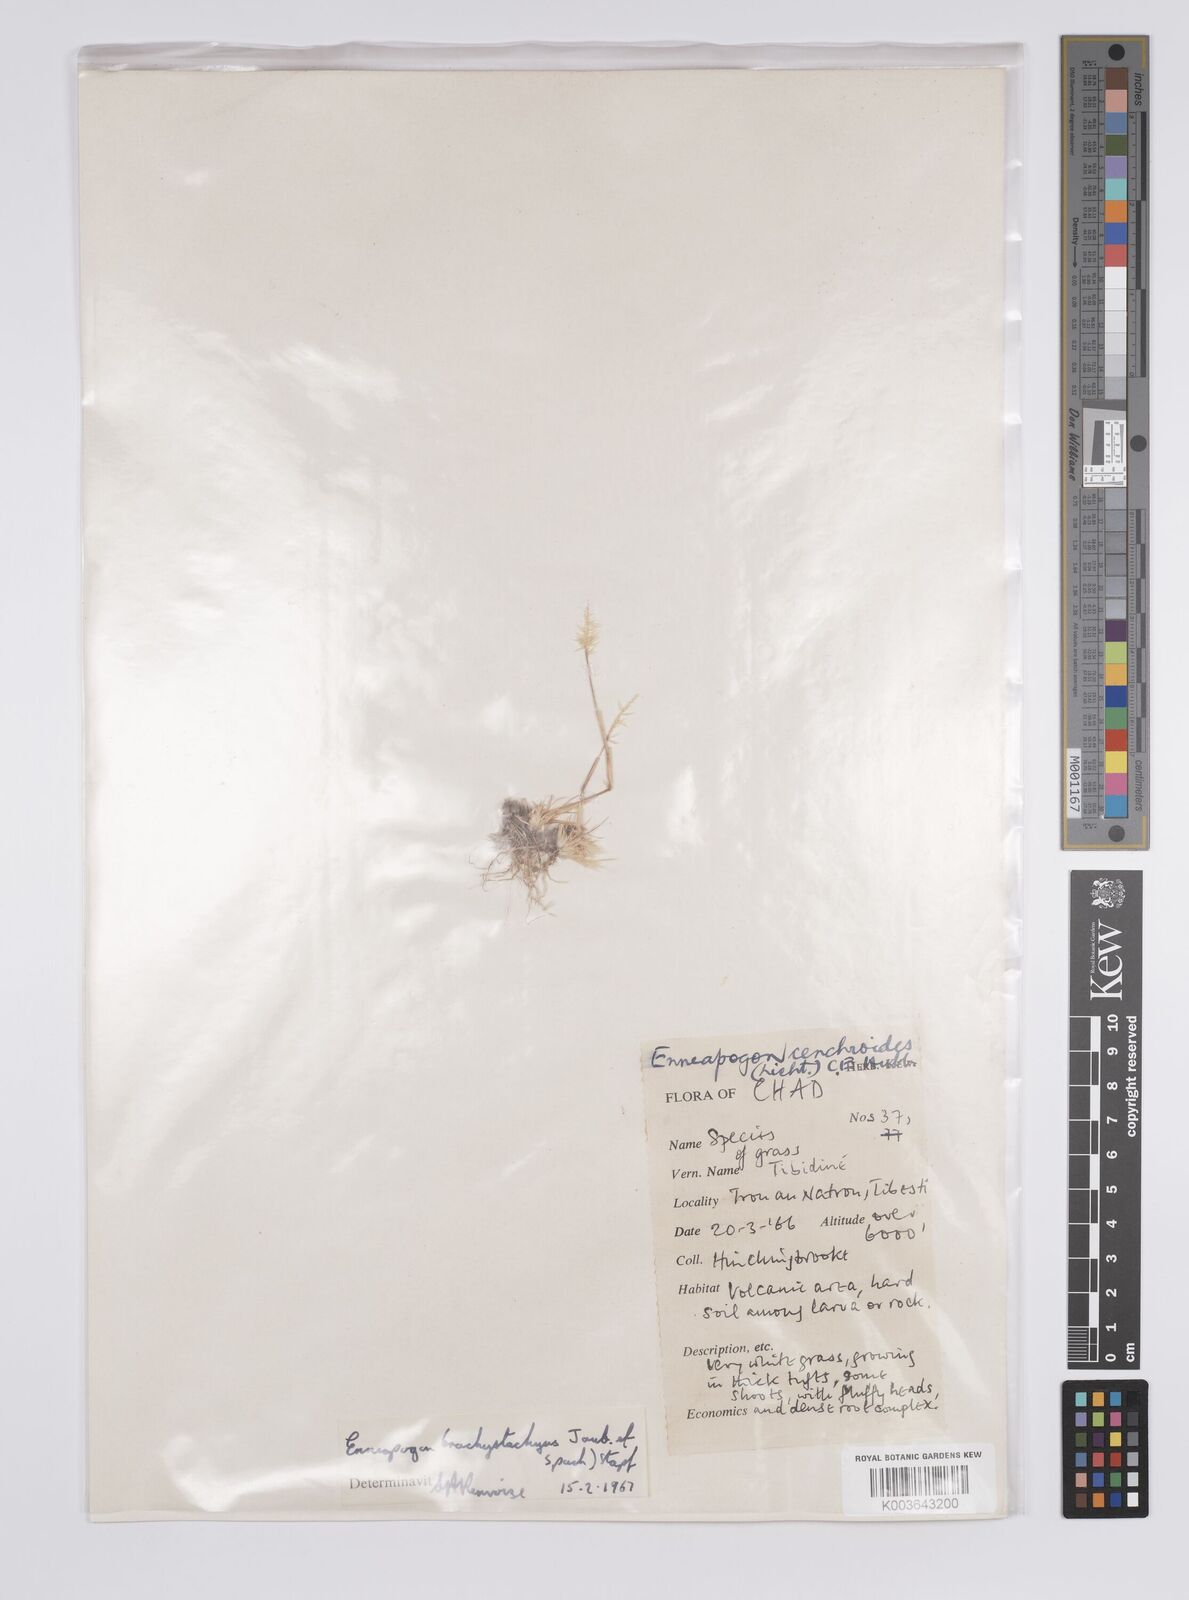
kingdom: Plantae
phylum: Tracheophyta
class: Liliopsida
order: Poales
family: Poaceae
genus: Enneapogon
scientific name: Enneapogon desvauxii
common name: Feather pappus grass
